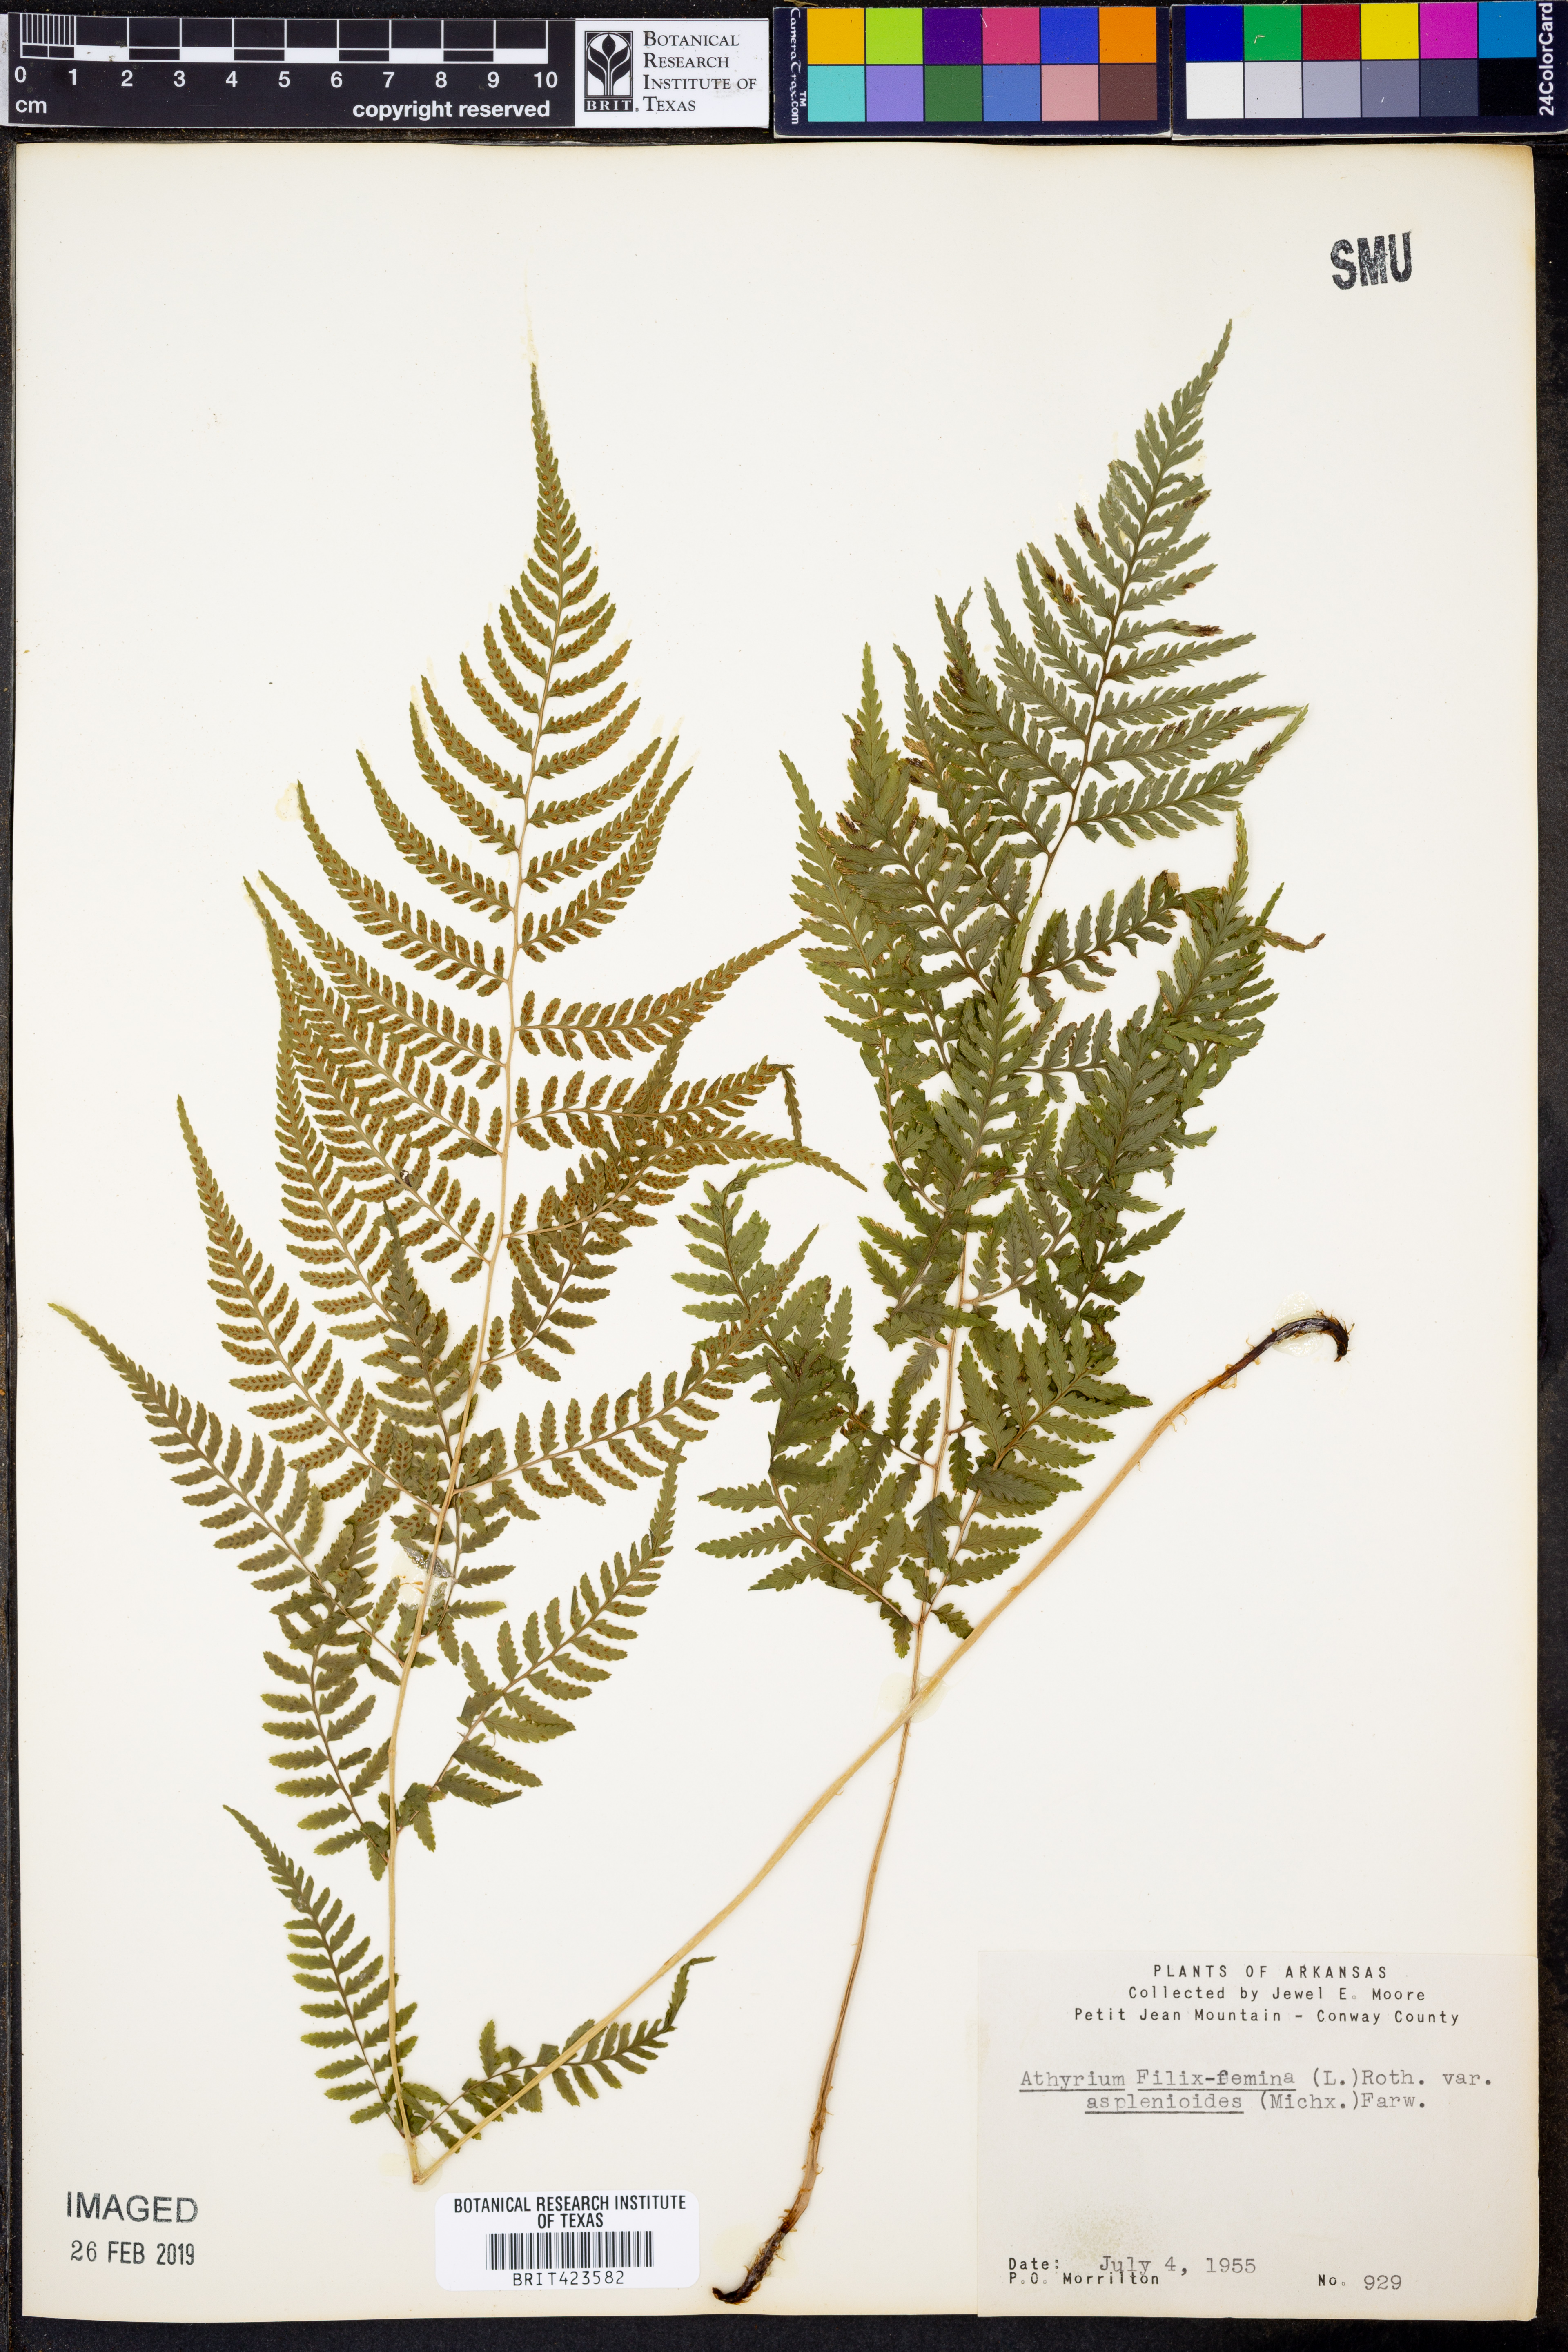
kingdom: Plantae
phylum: Tracheophyta
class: Polypodiopsida
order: Polypodiales
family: Athyriaceae
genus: Athyrium
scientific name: Athyrium asplenioides
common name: Southern lady fern
